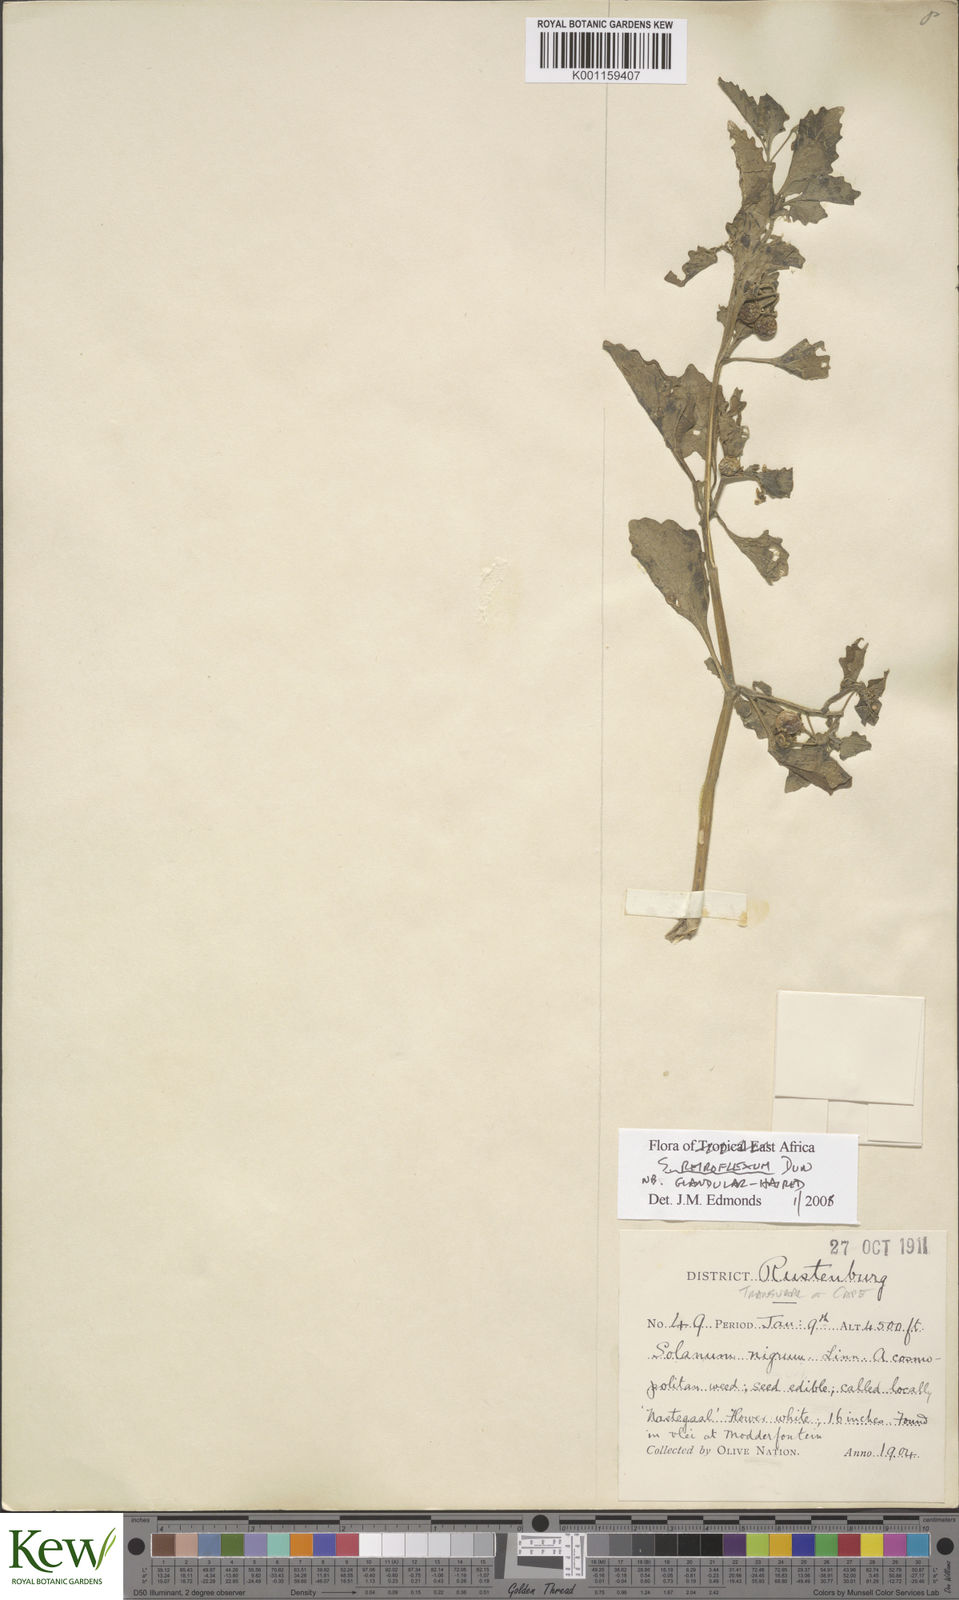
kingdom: Plantae
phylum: Tracheophyta
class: Magnoliopsida
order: Solanales
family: Solanaceae
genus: Solanum
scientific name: Solanum retroflexum
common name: Wonderberry
